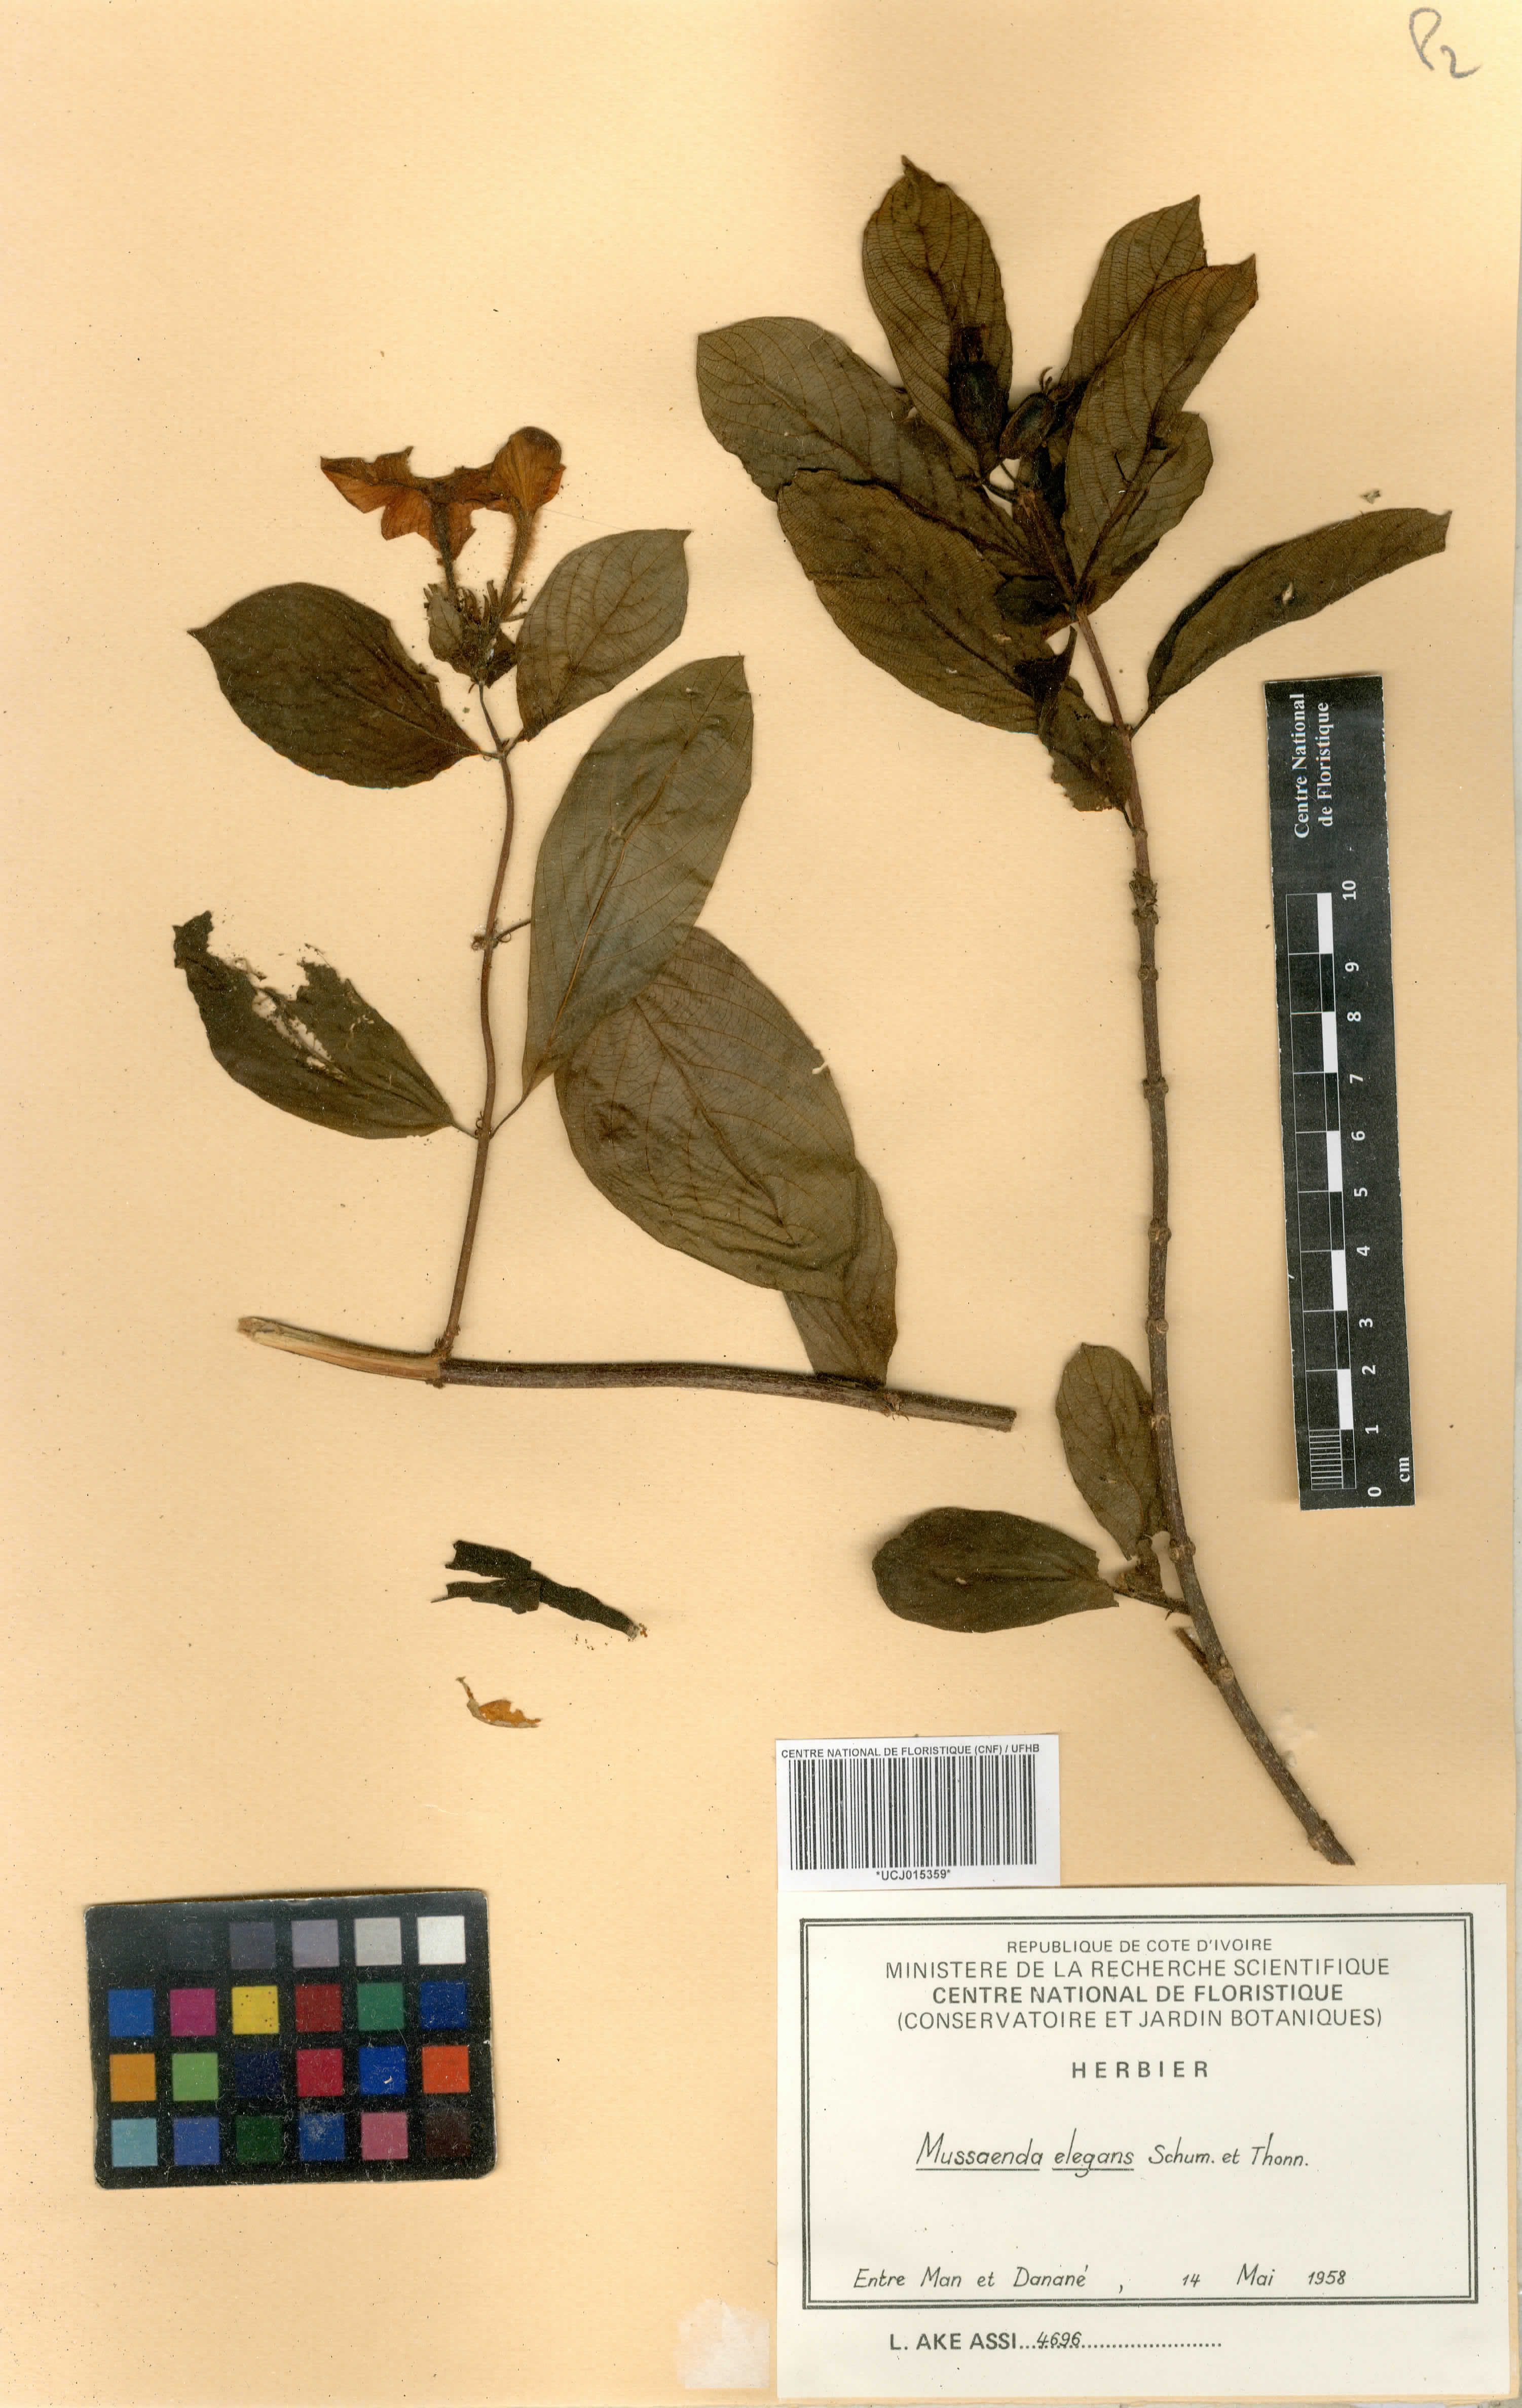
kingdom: Plantae
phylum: Tracheophyta
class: Magnoliopsida
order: Gentianales
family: Rubiaceae
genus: Mussaenda
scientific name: Mussaenda elegans
